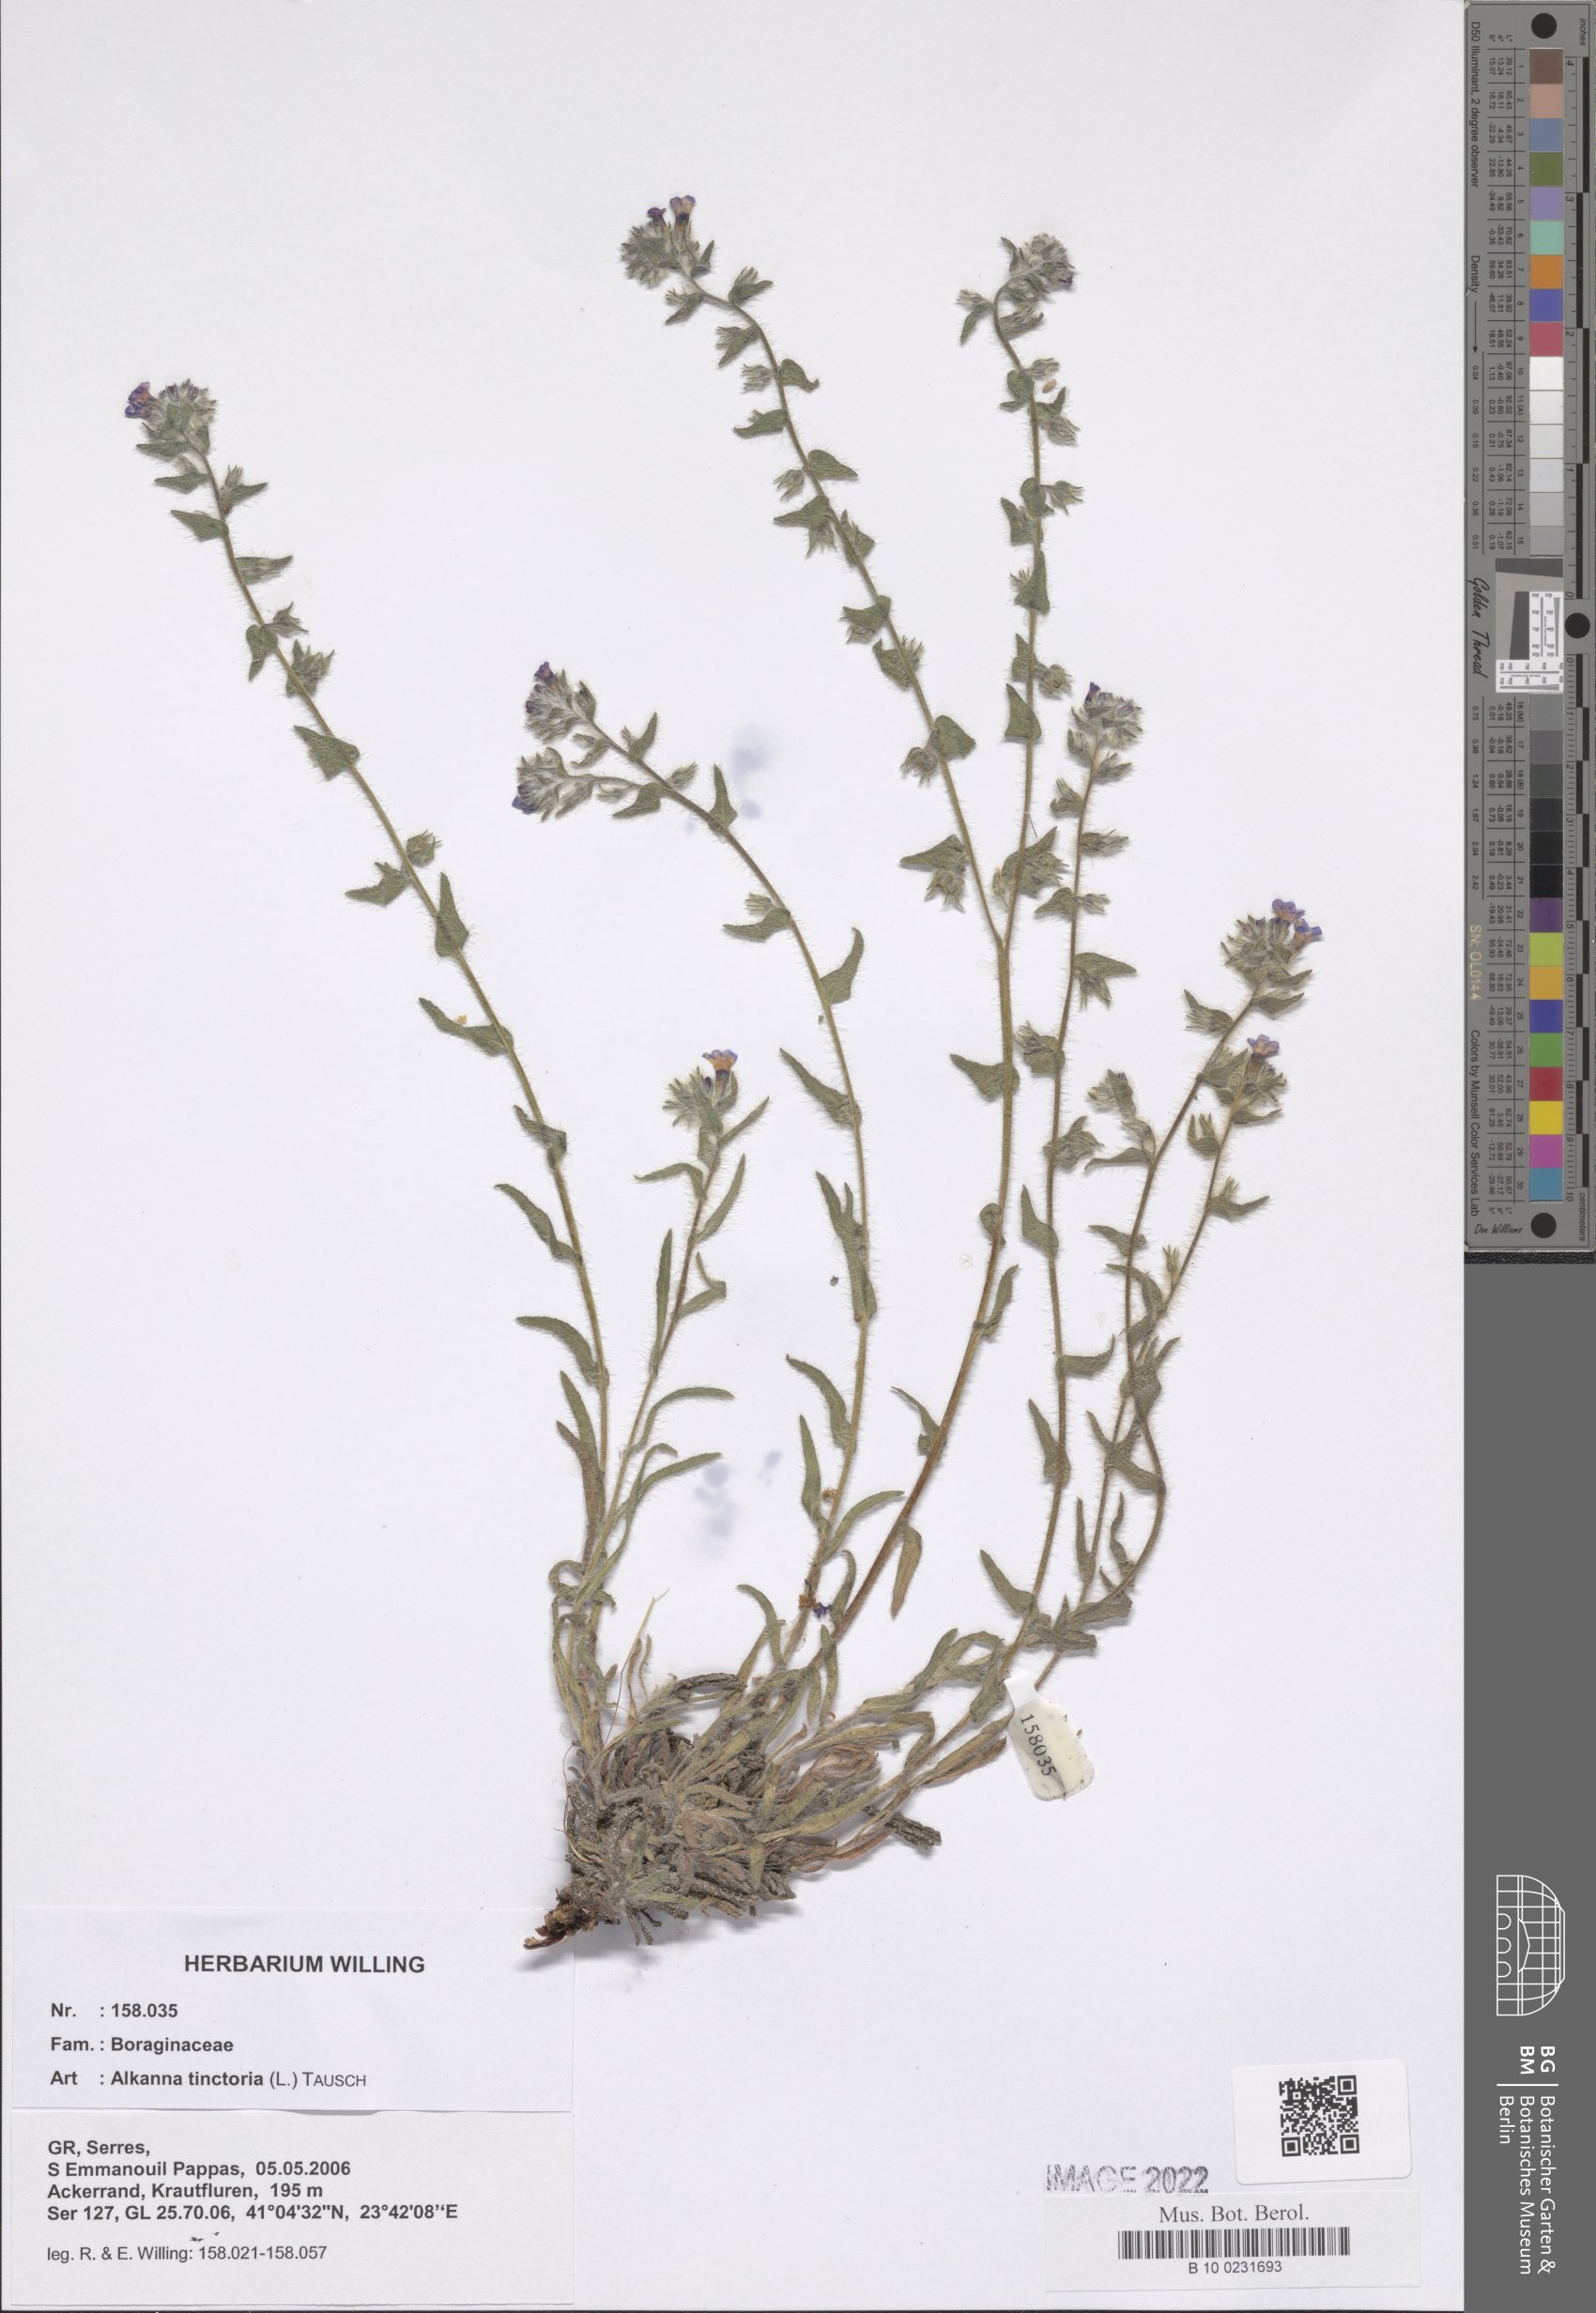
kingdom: Plantae
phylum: Tracheophyta
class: Magnoliopsida
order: Boraginales
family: Boraginaceae
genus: Alkanna
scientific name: Alkanna tinctoria
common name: Dyer's-alkanet
